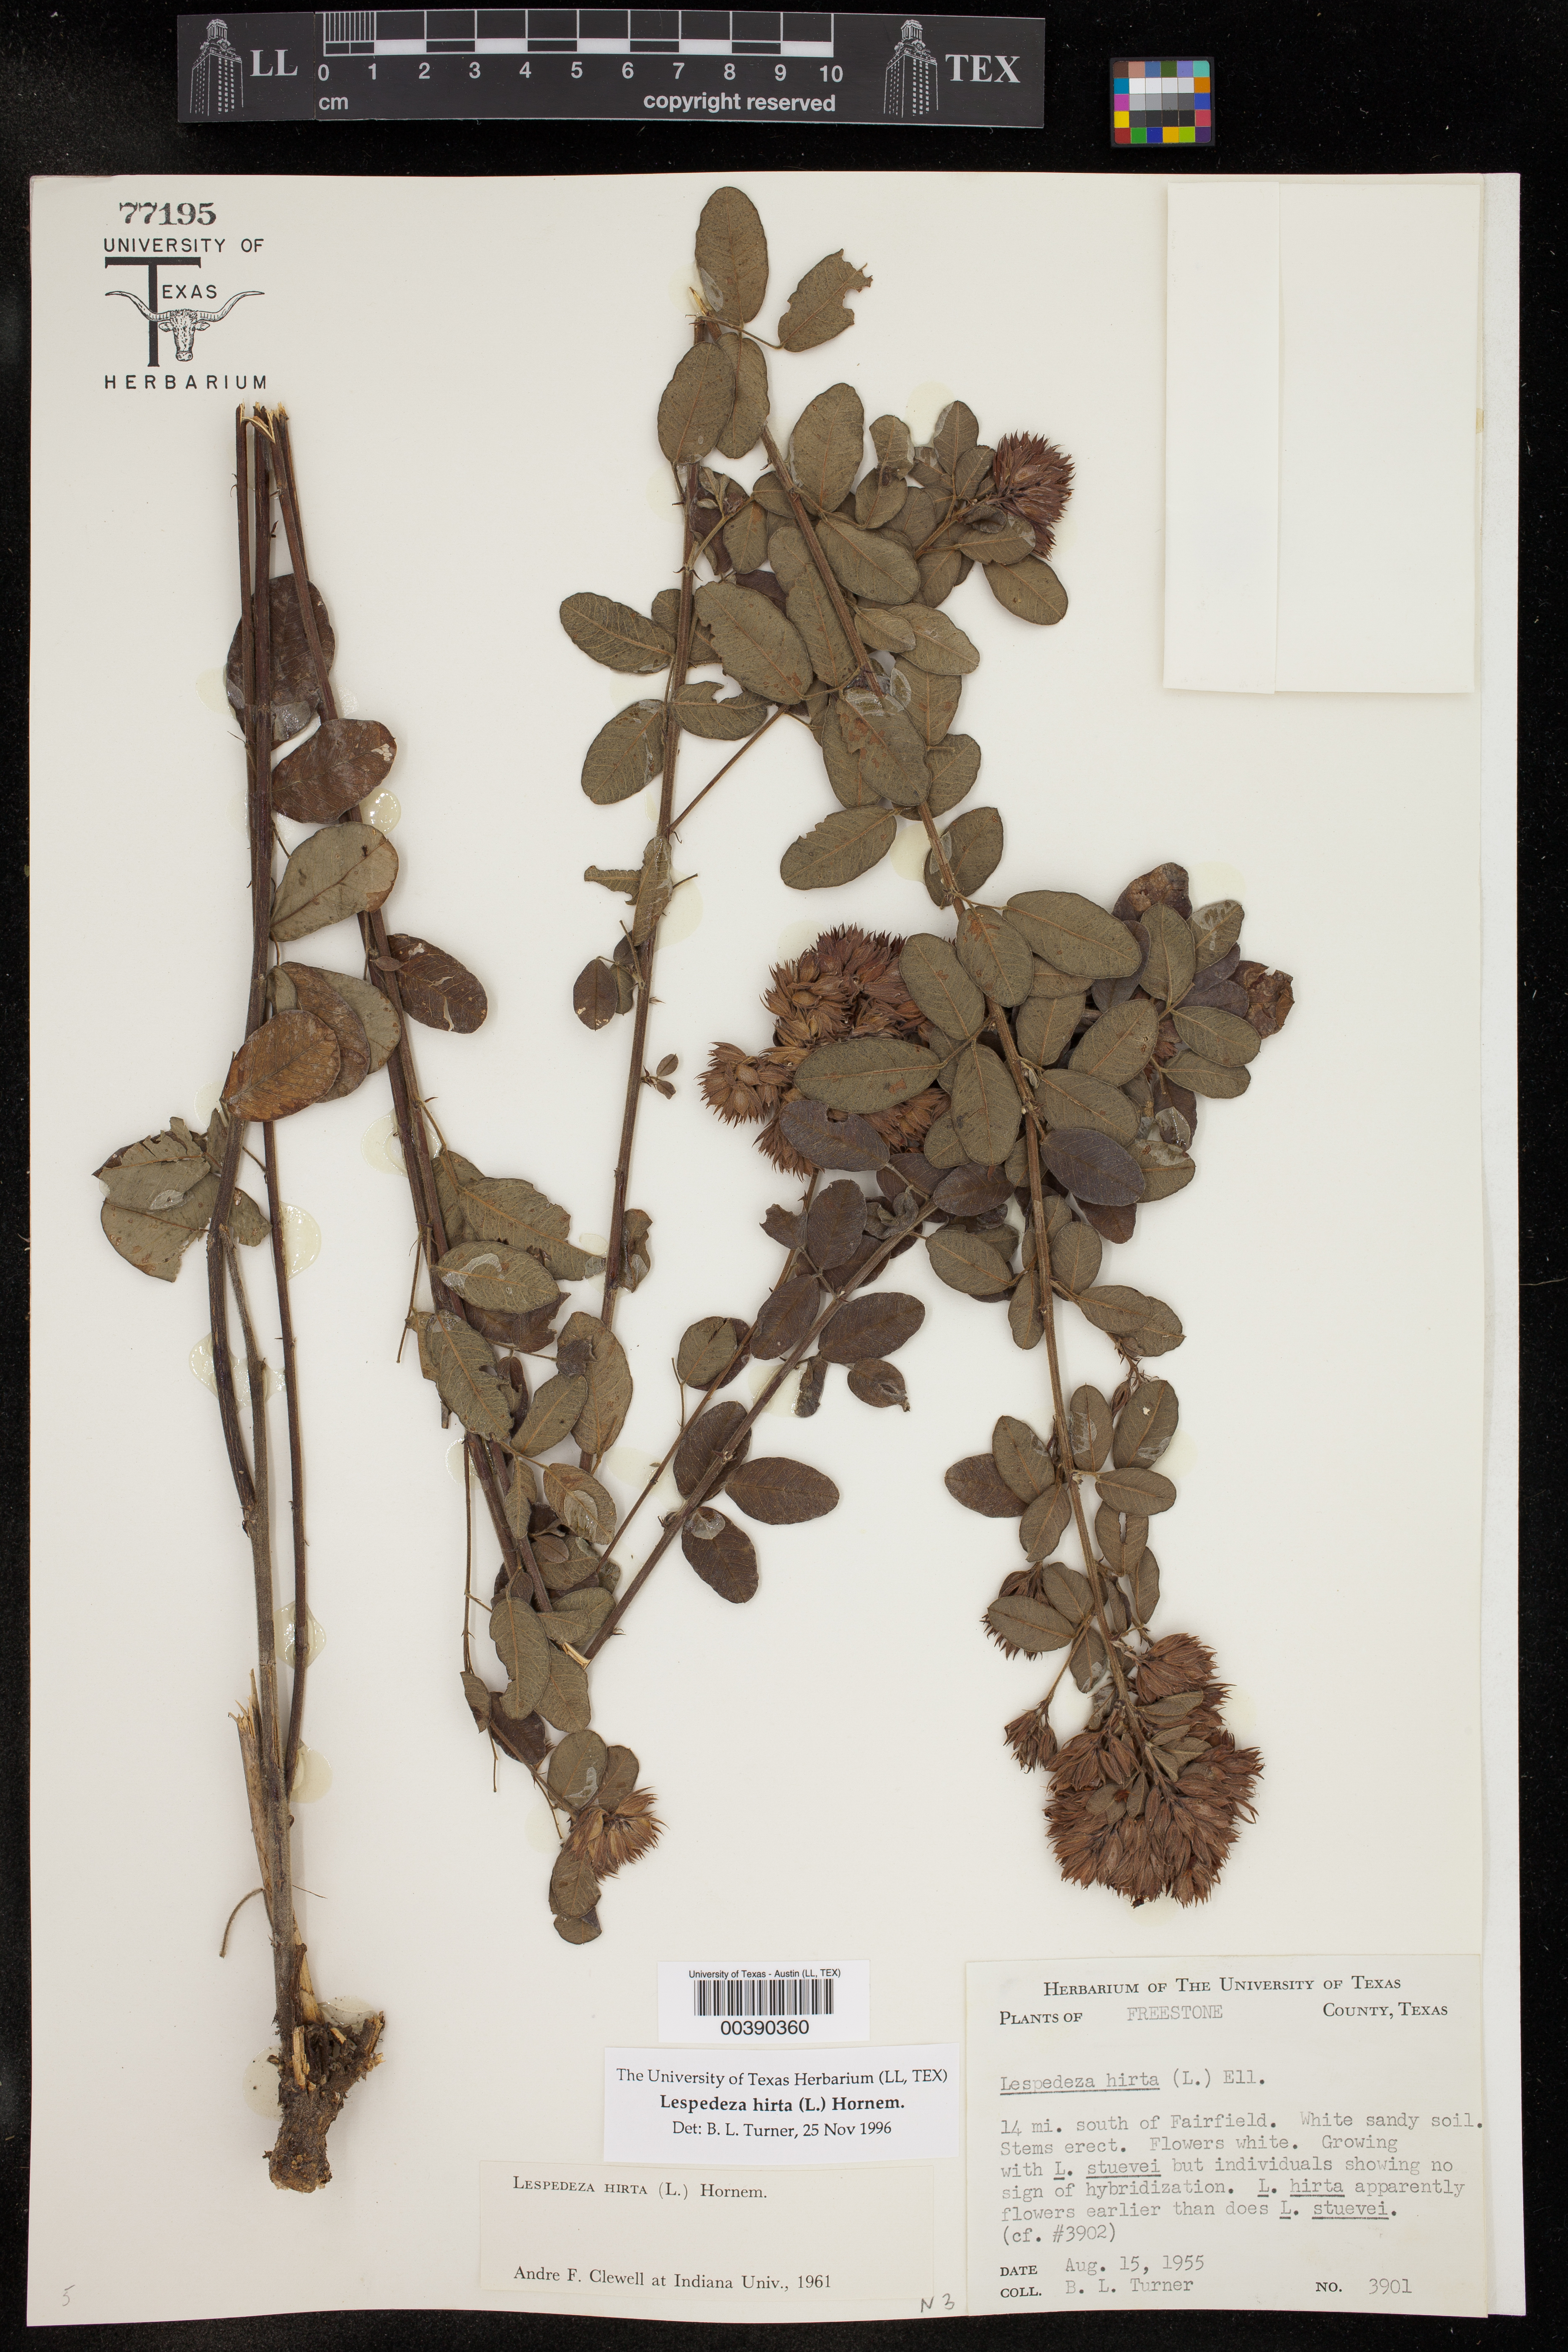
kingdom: Plantae
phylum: Tracheophyta
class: Magnoliopsida
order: Fabales
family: Fabaceae
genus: Lespedeza
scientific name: Lespedeza hirta
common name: Hairy lespedeza
